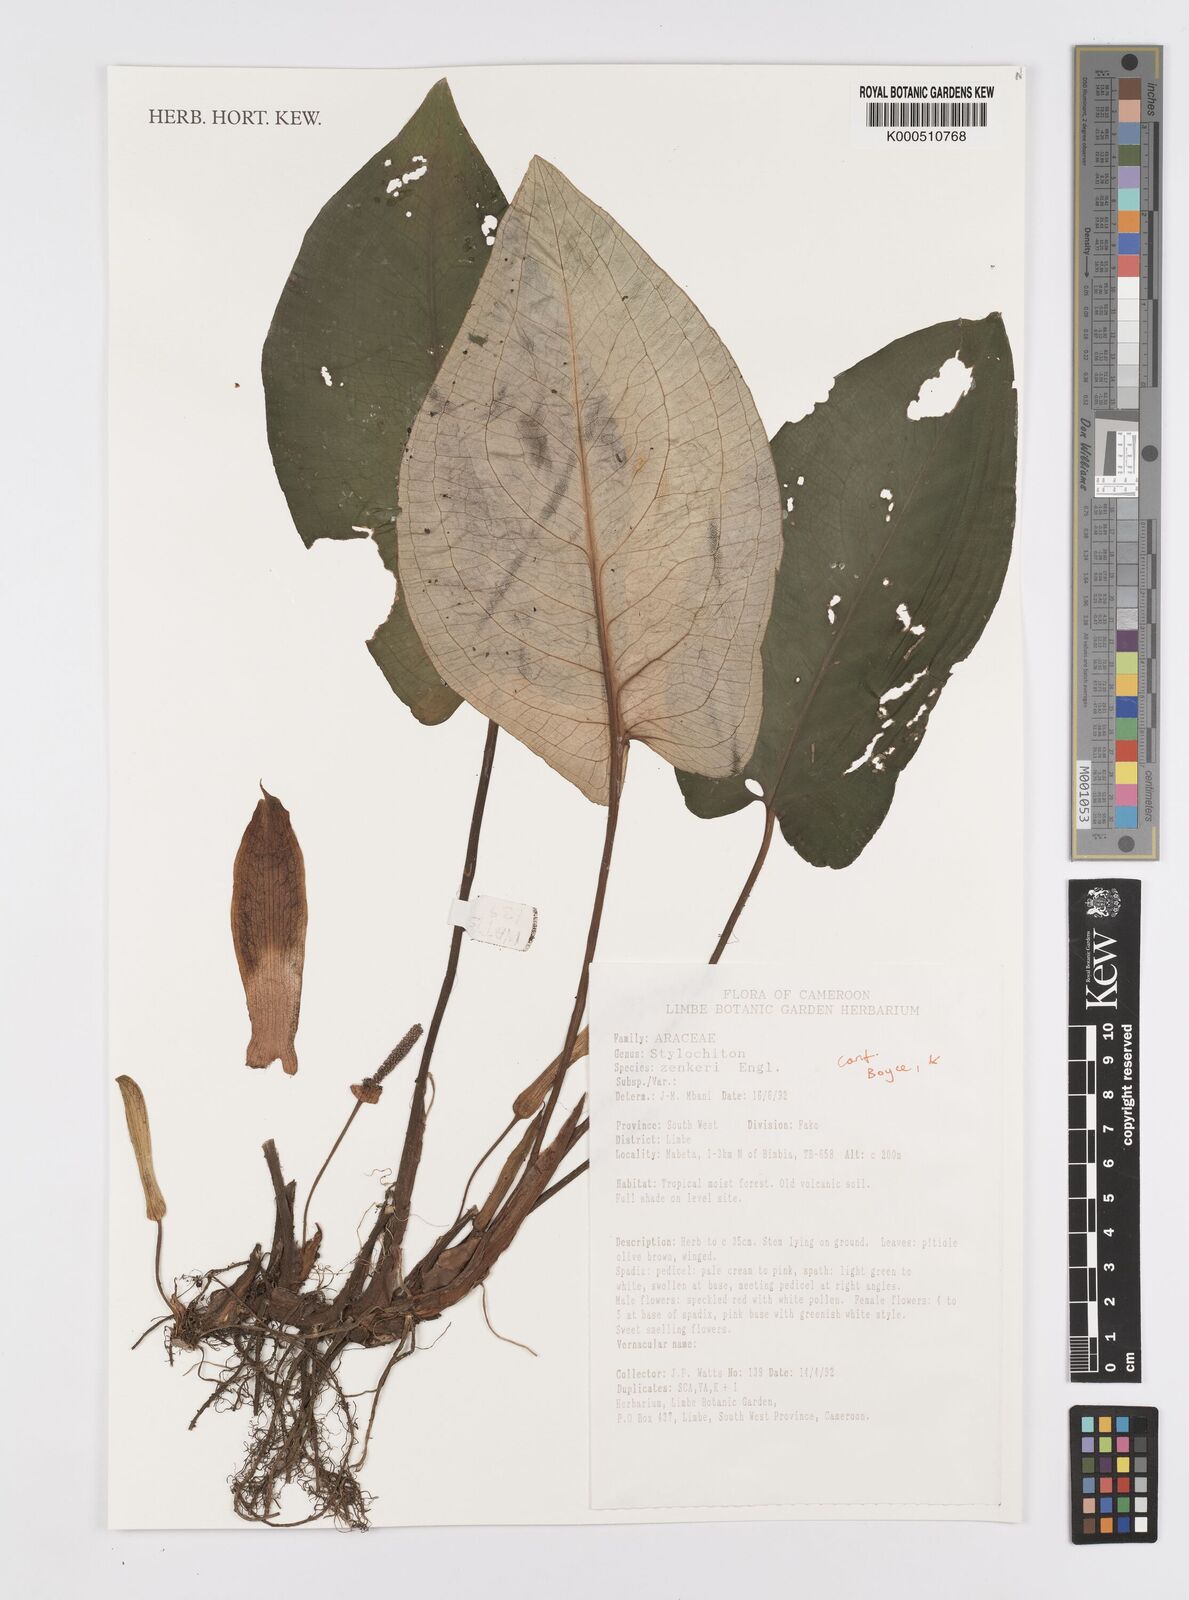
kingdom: Plantae
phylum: Tracheophyta
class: Liliopsida
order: Alismatales
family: Araceae
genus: Stylochaeton
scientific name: Stylochaeton zenkeri
